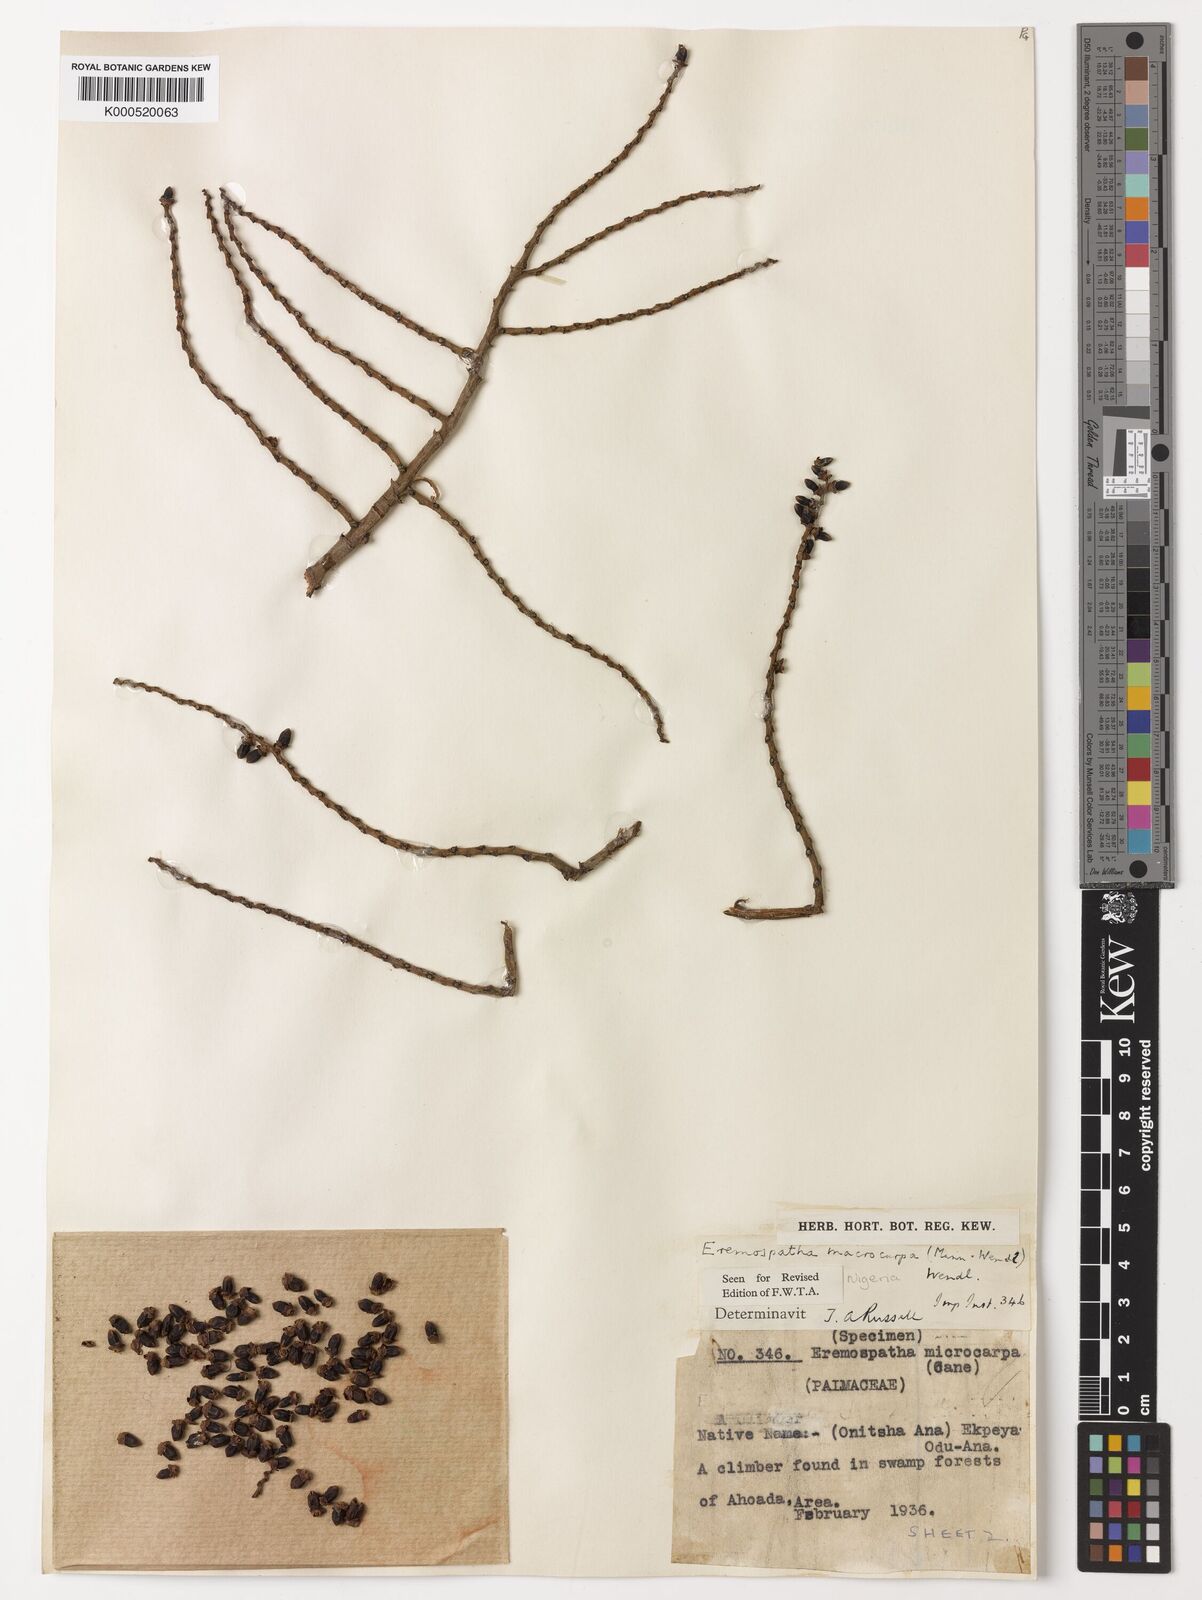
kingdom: Plantae
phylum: Tracheophyta
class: Liliopsida
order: Arecales
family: Arecaceae
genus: Eremospatha
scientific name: Eremospatha
